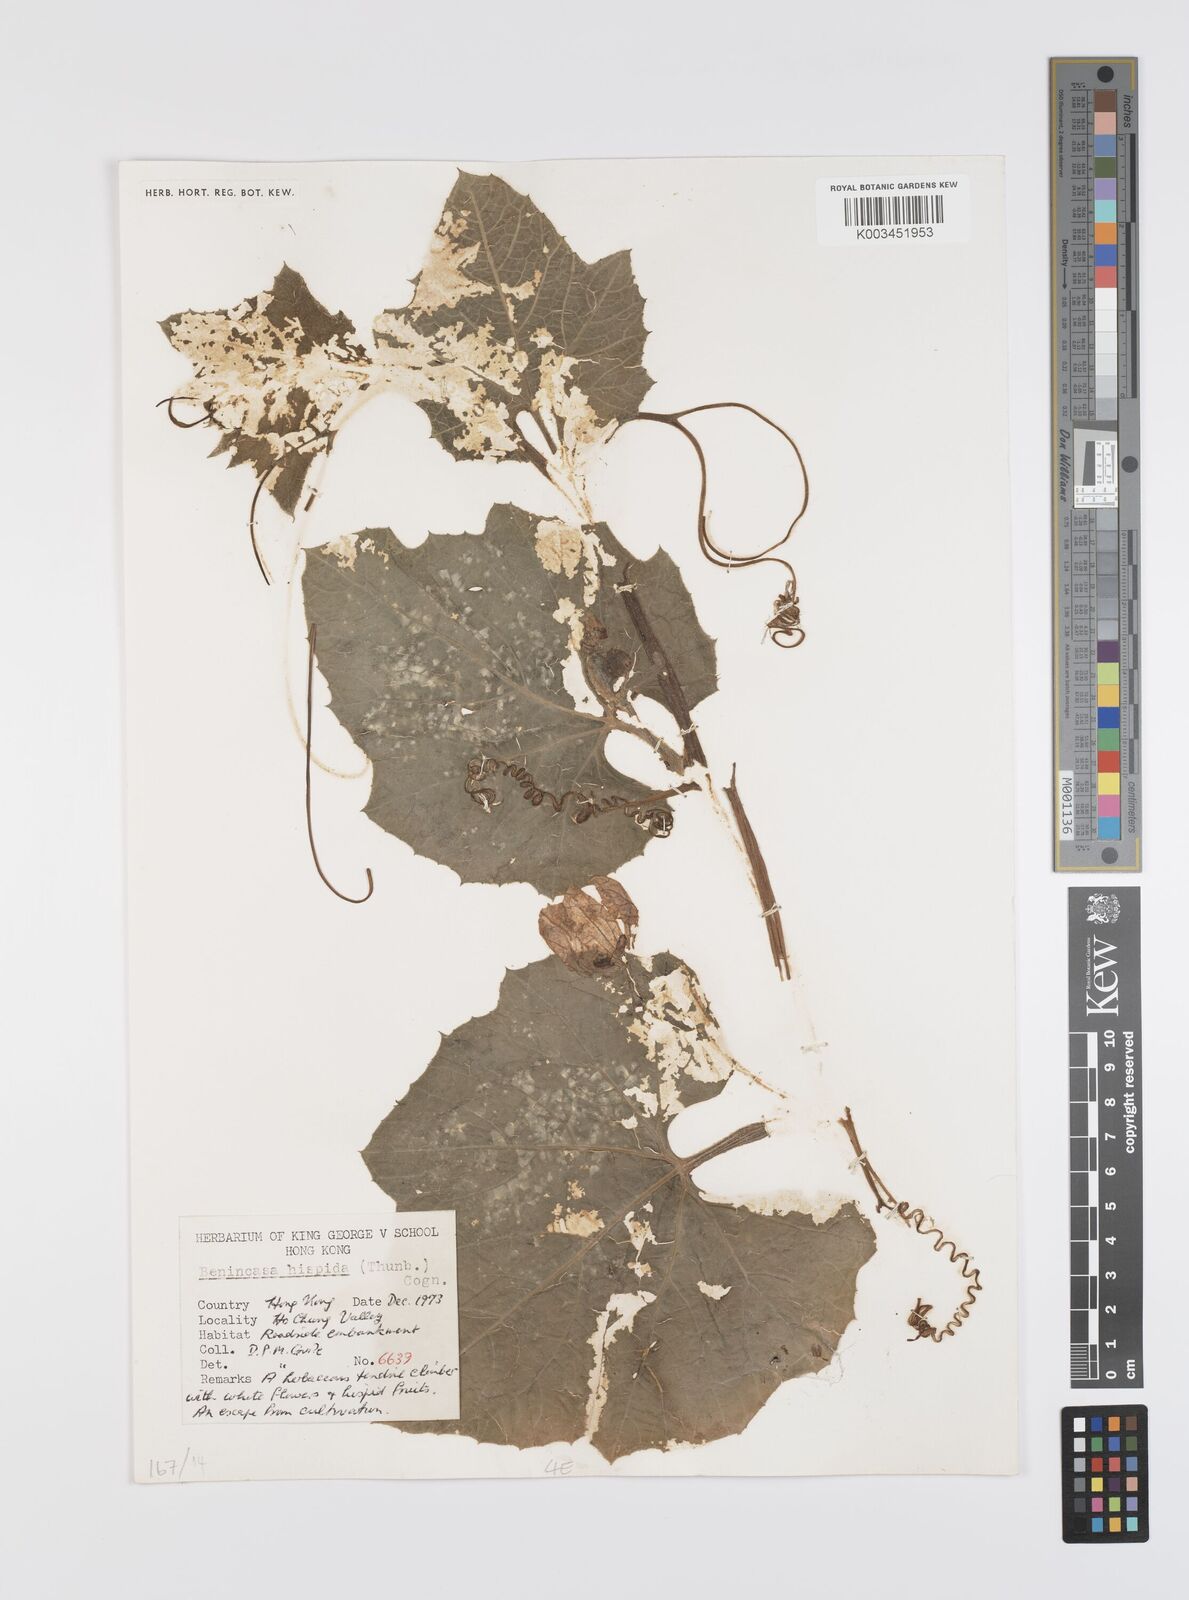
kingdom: Plantae
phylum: Tracheophyta
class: Magnoliopsida
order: Cucurbitales
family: Cucurbitaceae
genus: Benincasa
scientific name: Benincasa hispida
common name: Chinese-watermelon
